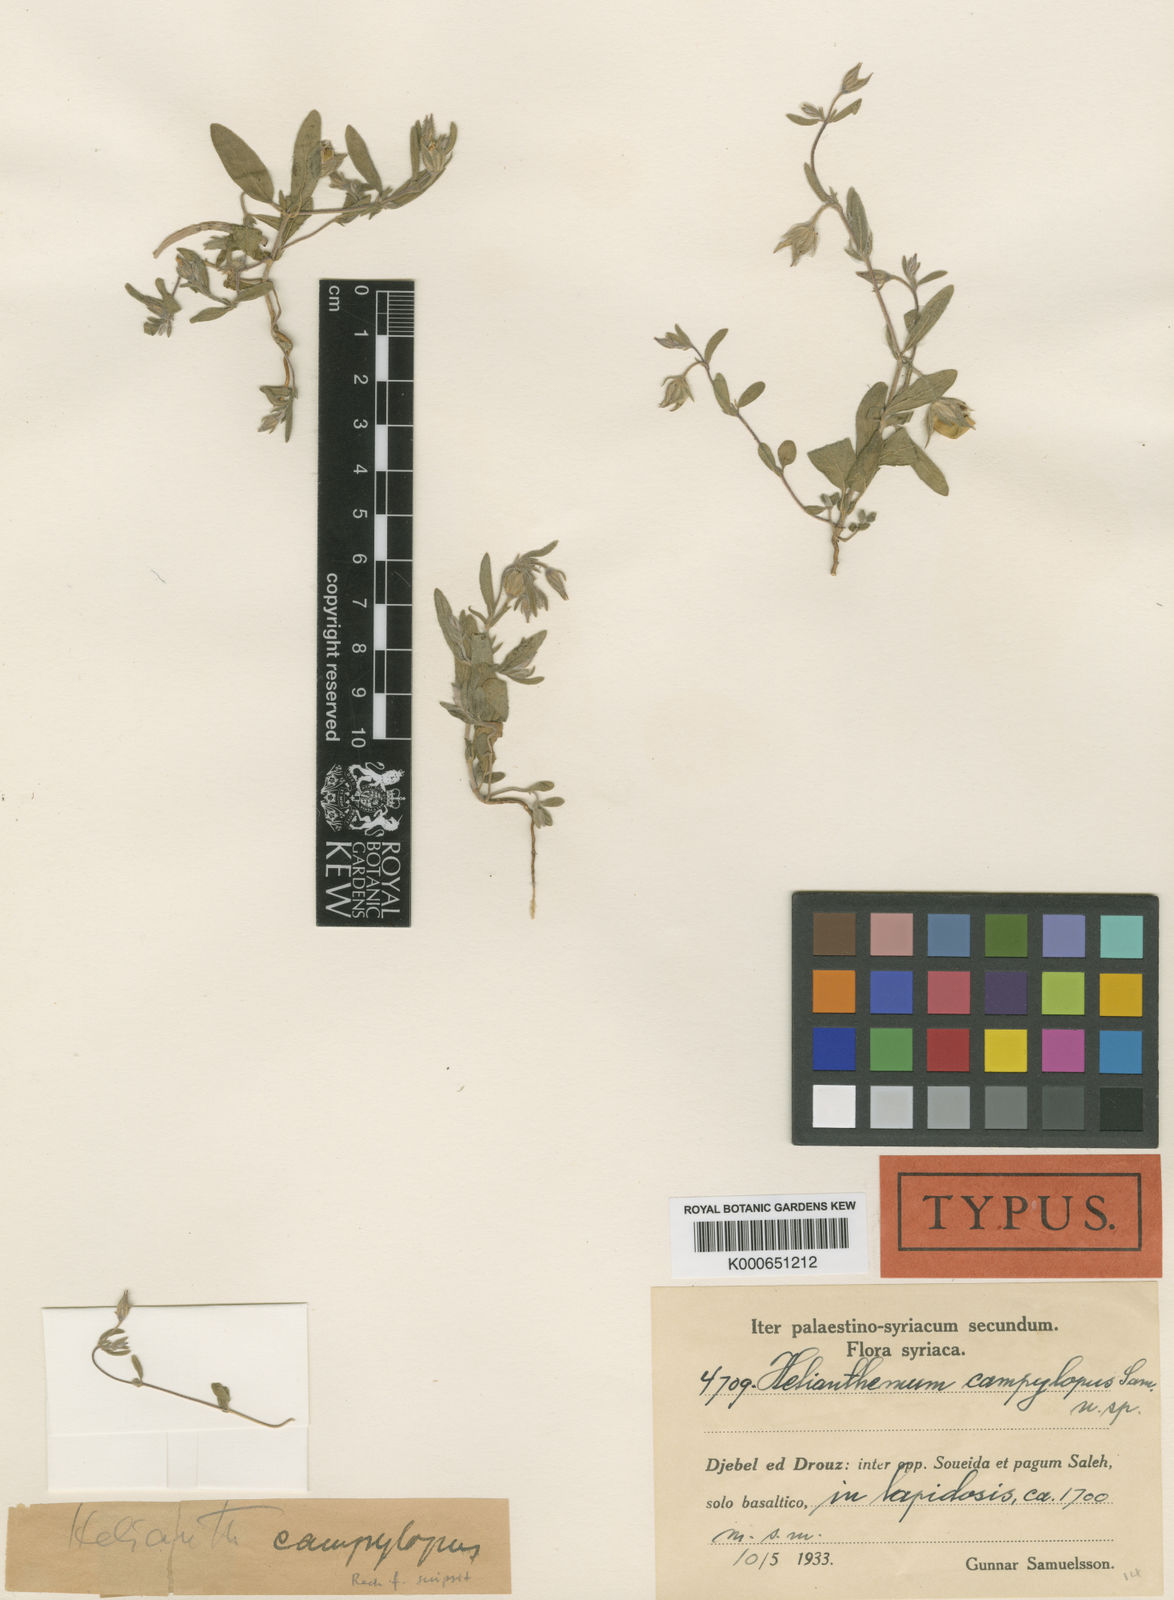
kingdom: Plantae
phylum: Tracheophyta
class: Magnoliopsida
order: Malvales
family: Cistaceae
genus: Helianthemum
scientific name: Helianthemum ledifolium
